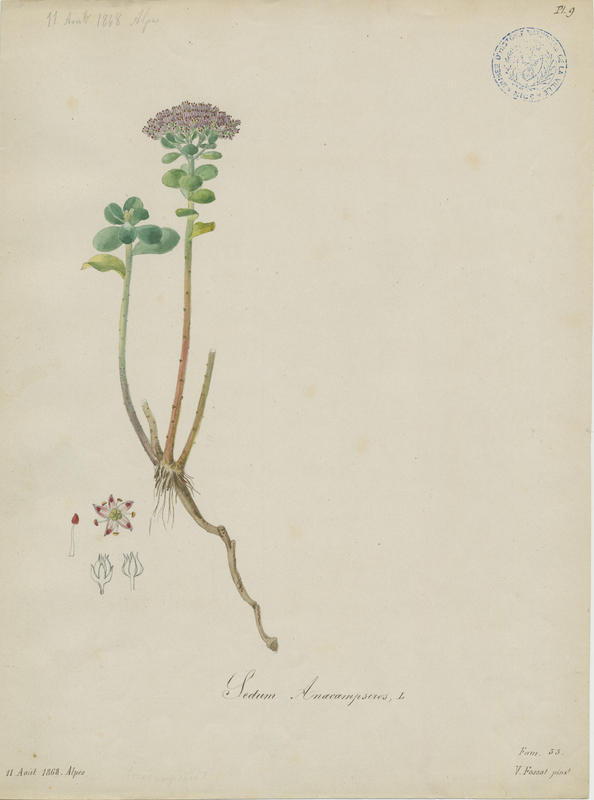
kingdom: Plantae
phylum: Tracheophyta
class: Magnoliopsida
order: Saxifragales
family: Crassulaceae
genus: Hylotelephium
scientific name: Hylotelephium anacampseros
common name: Love-restorer
